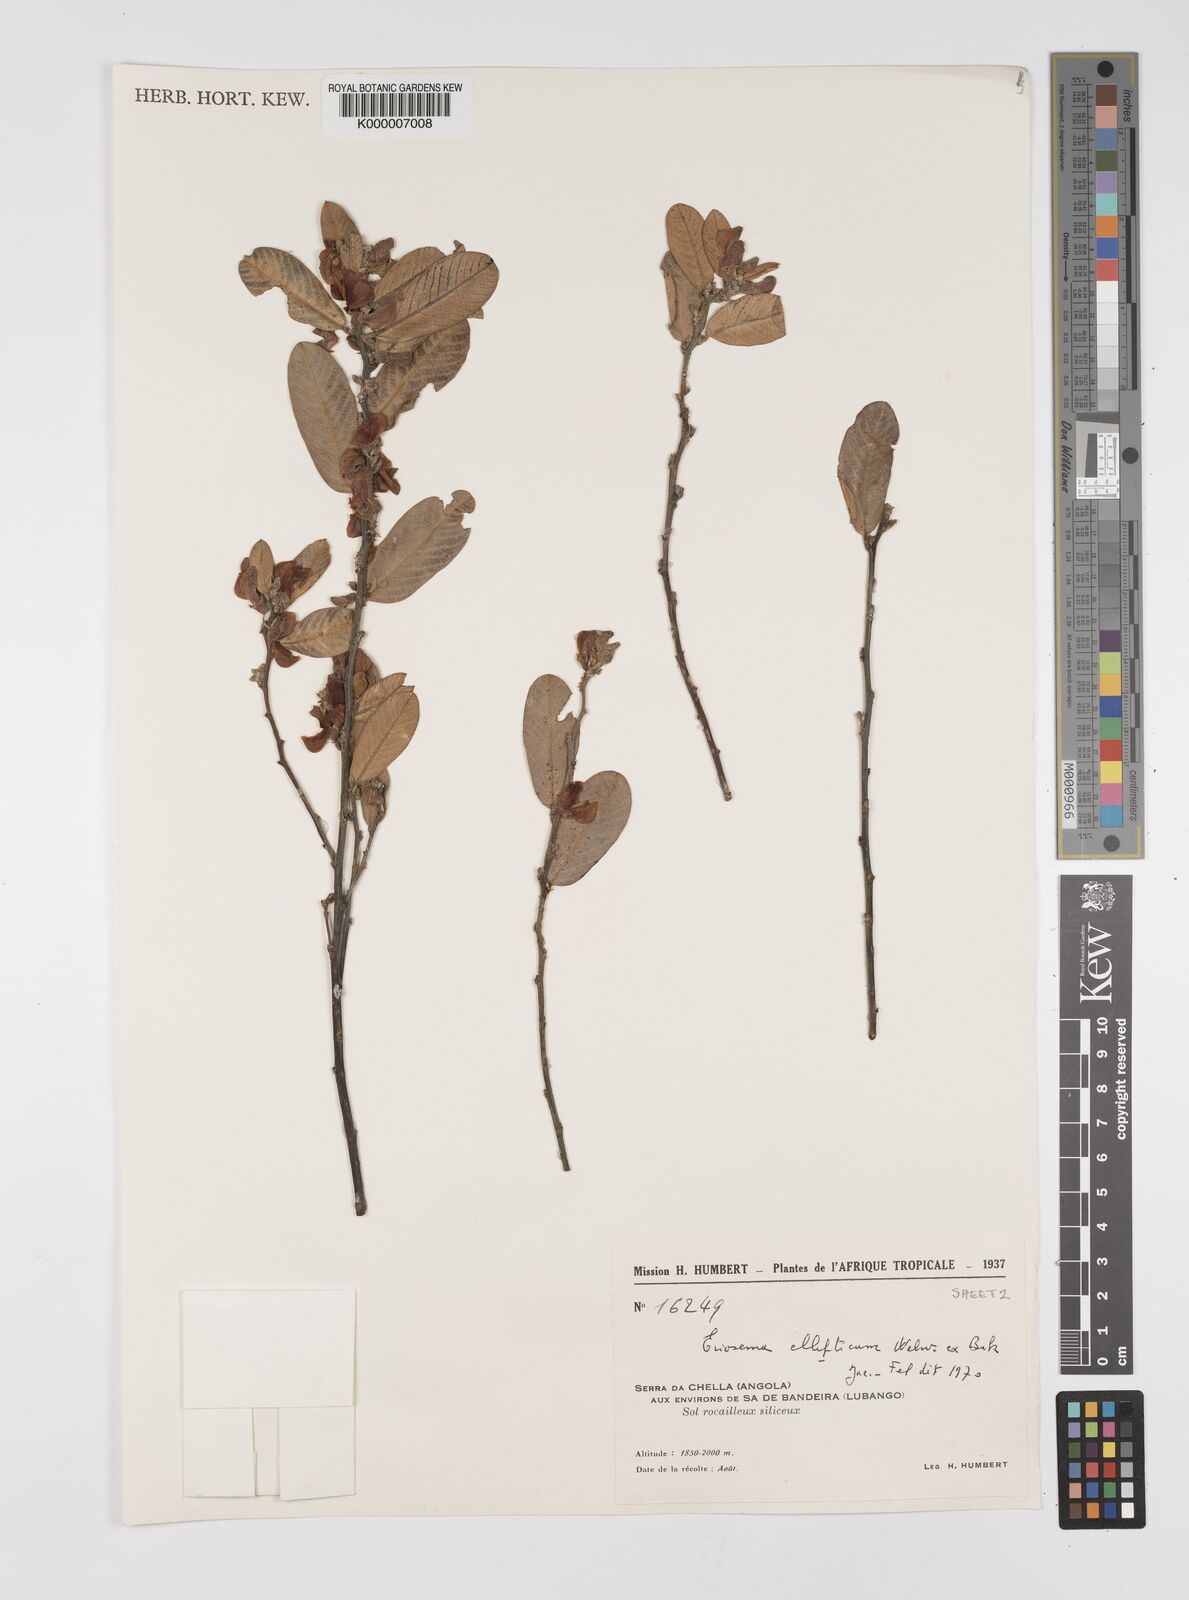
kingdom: Plantae
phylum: Tracheophyta
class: Magnoliopsida
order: Fabales
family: Fabaceae
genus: Eriosema
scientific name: Eriosema ellipticum
